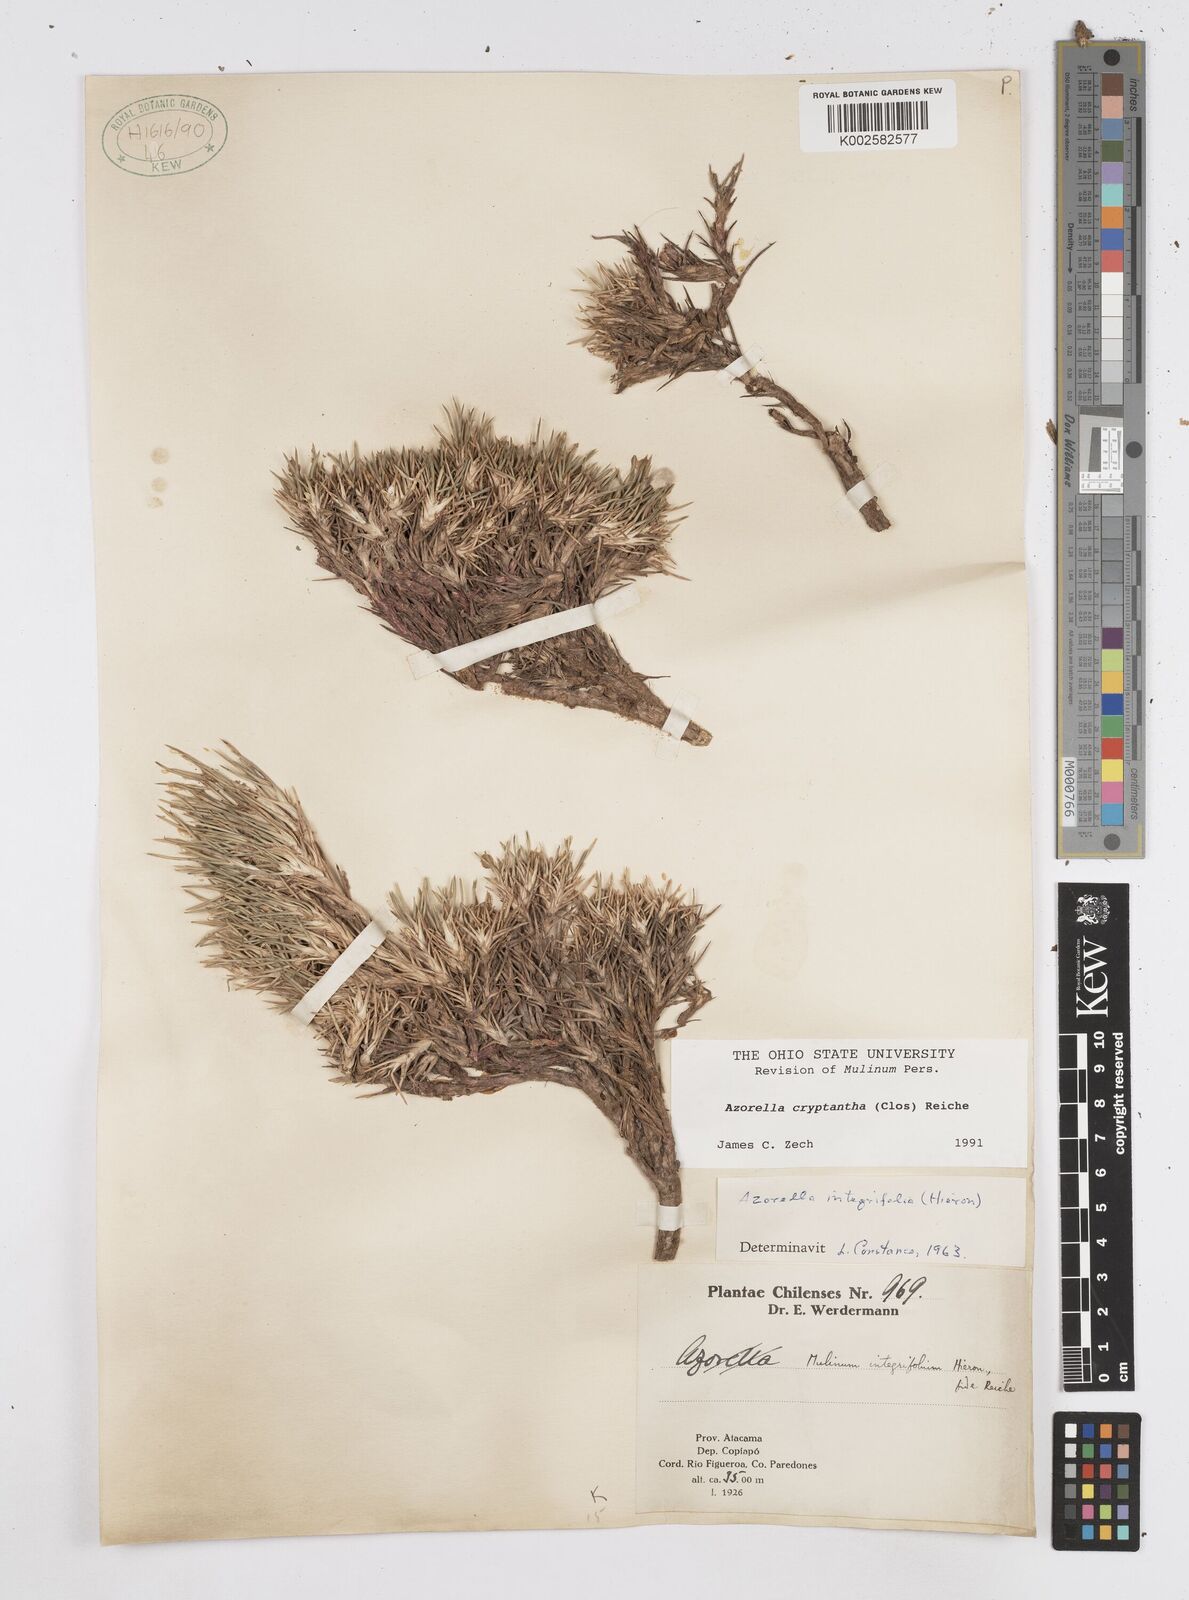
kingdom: Plantae
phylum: Tracheophyta
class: Magnoliopsida
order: Apiales
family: Apiaceae
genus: Azorella
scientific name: Azorella cryptantha
